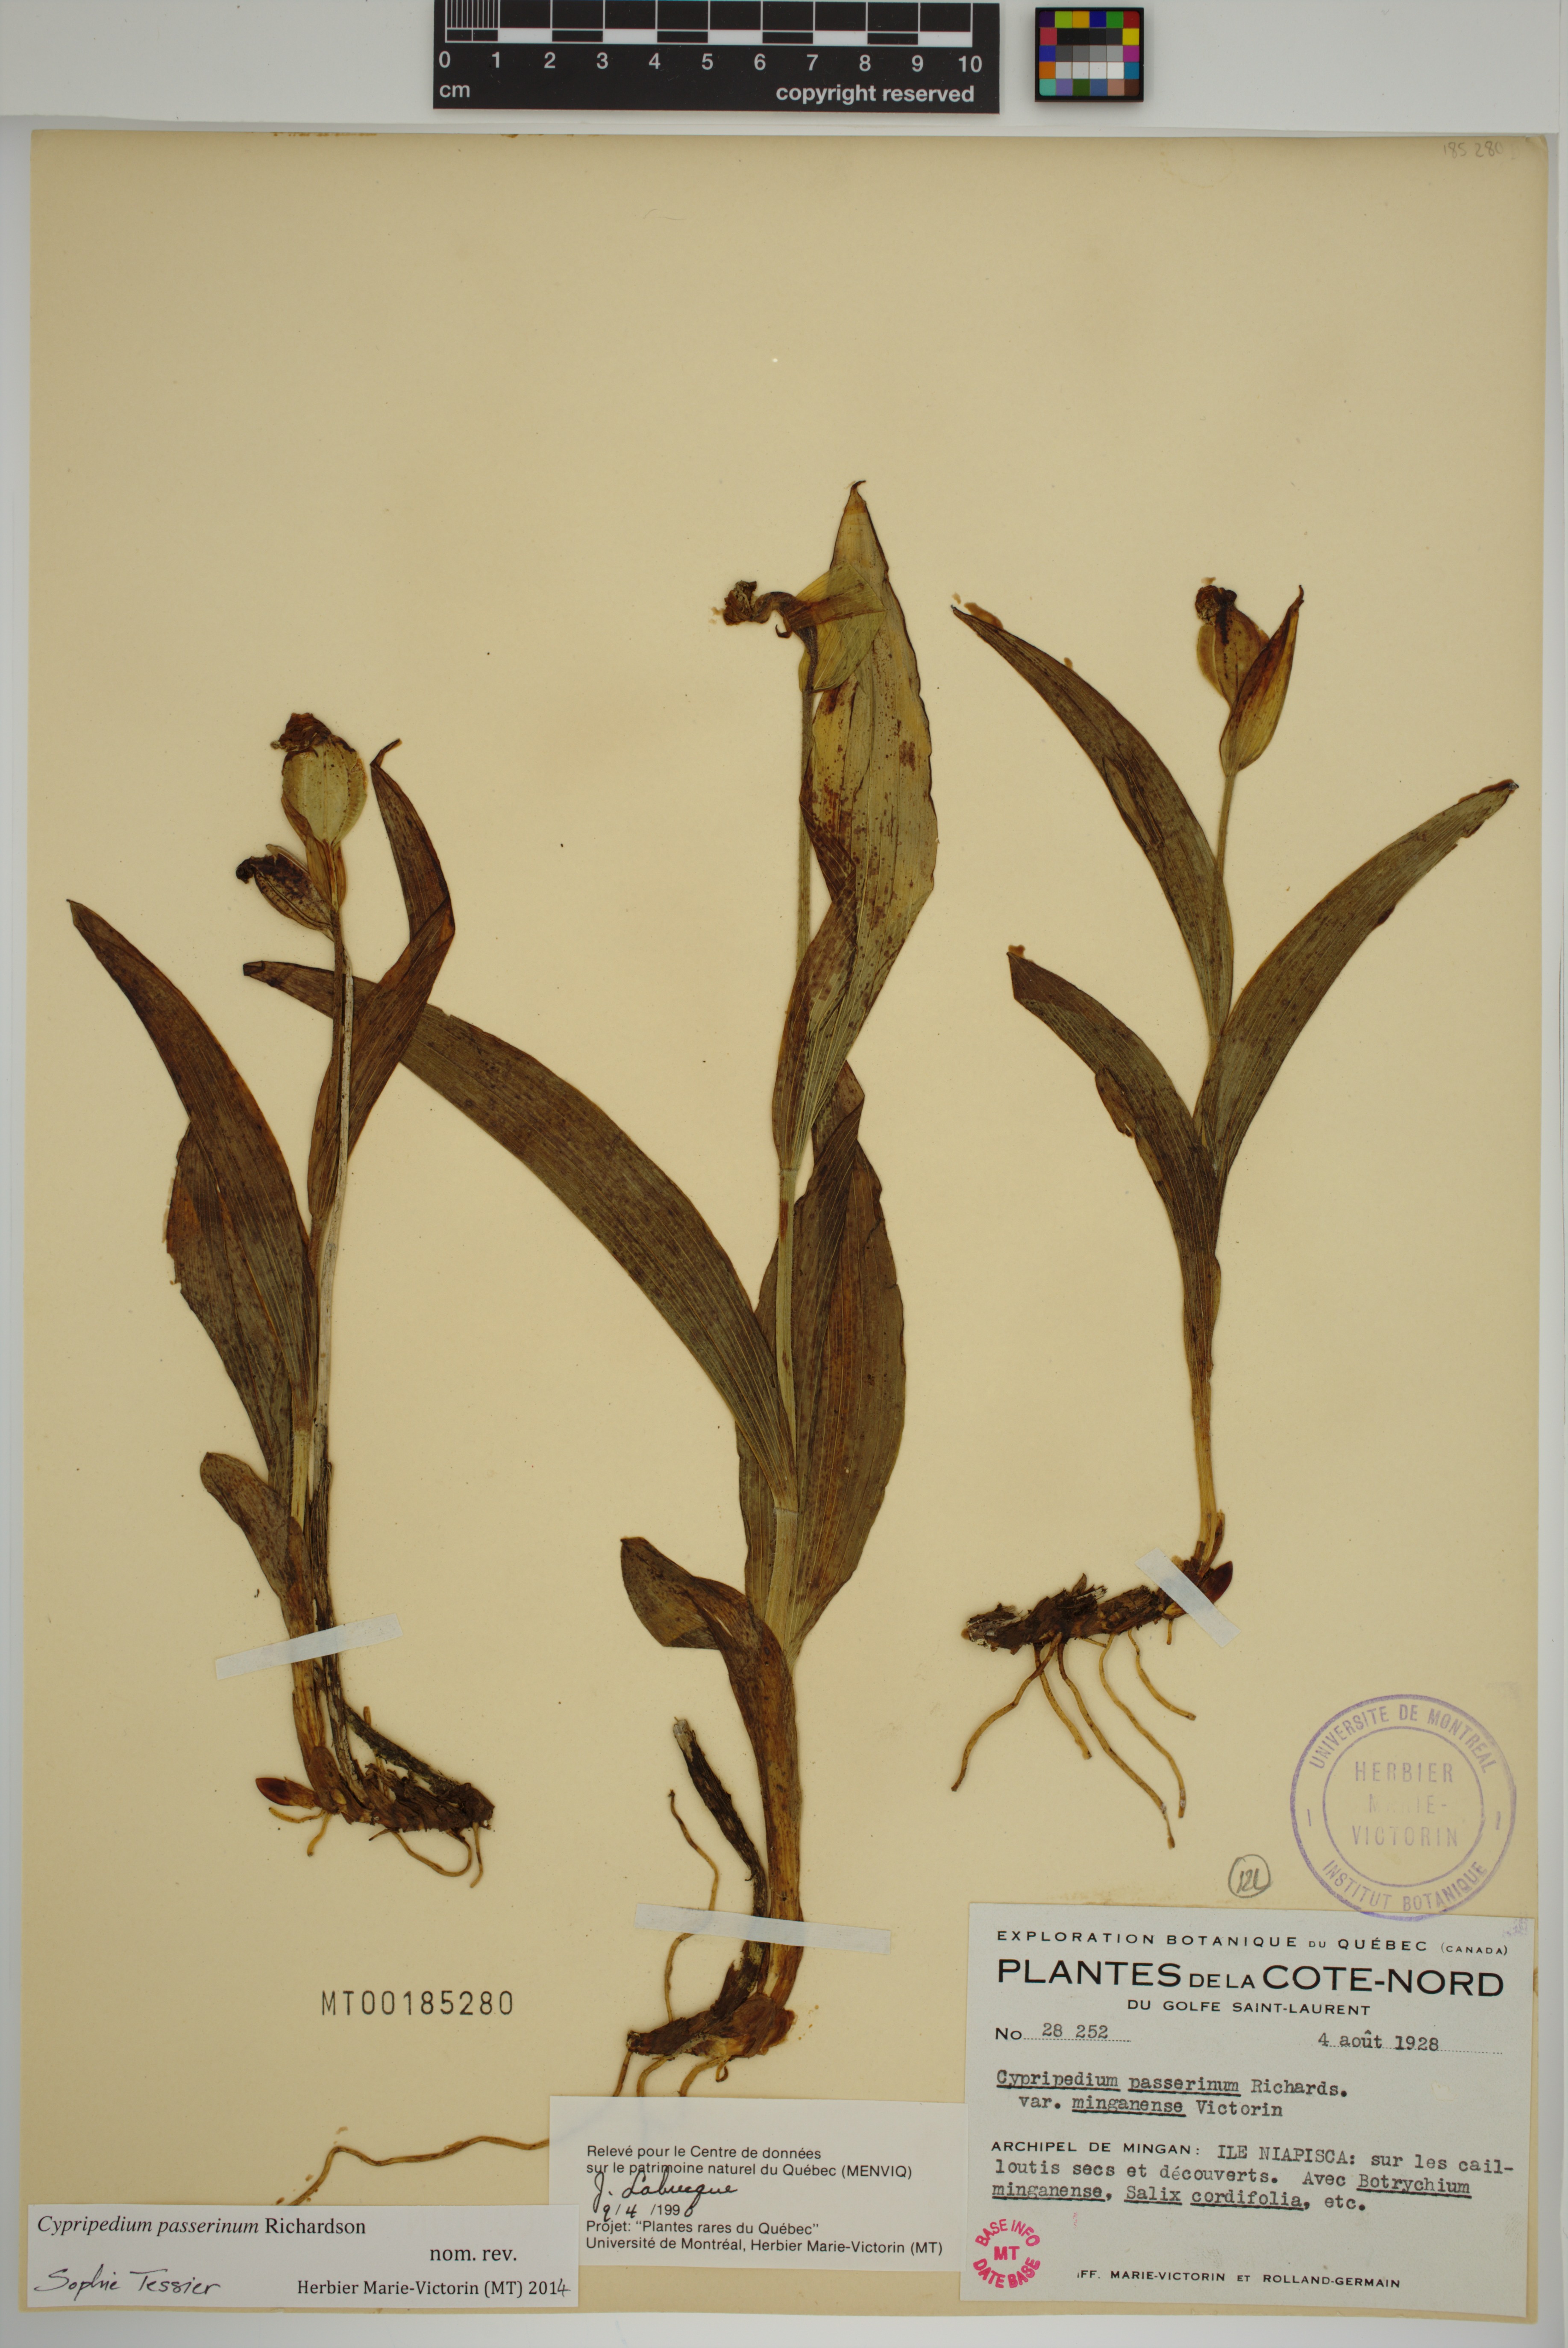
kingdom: Plantae
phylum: Tracheophyta
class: Liliopsida
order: Asparagales
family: Orchidaceae
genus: Cypripedium
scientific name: Cypripedium passerinum
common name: Sparrow's-egg lady's-slipper
